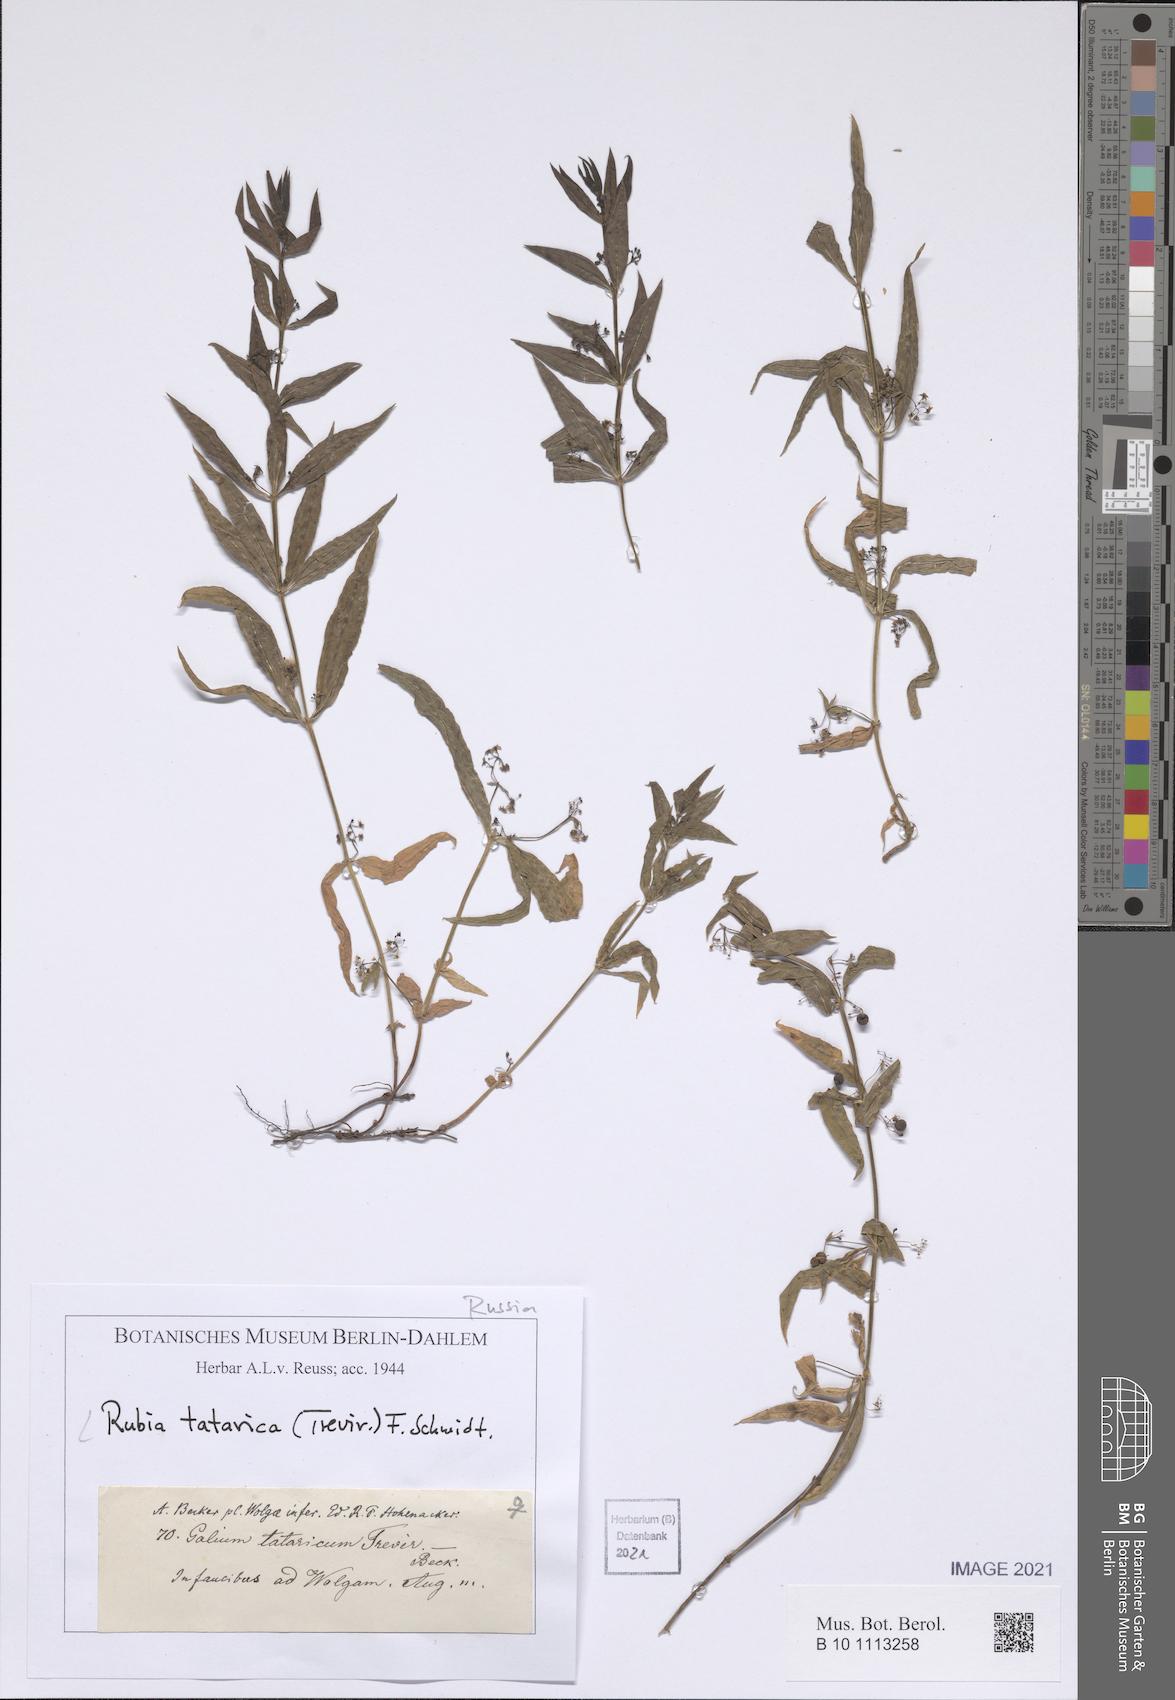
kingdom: Plantae
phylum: Tracheophyta
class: Magnoliopsida
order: Gentianales
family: Rubiaceae
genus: Rubia
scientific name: Rubia tatarica
